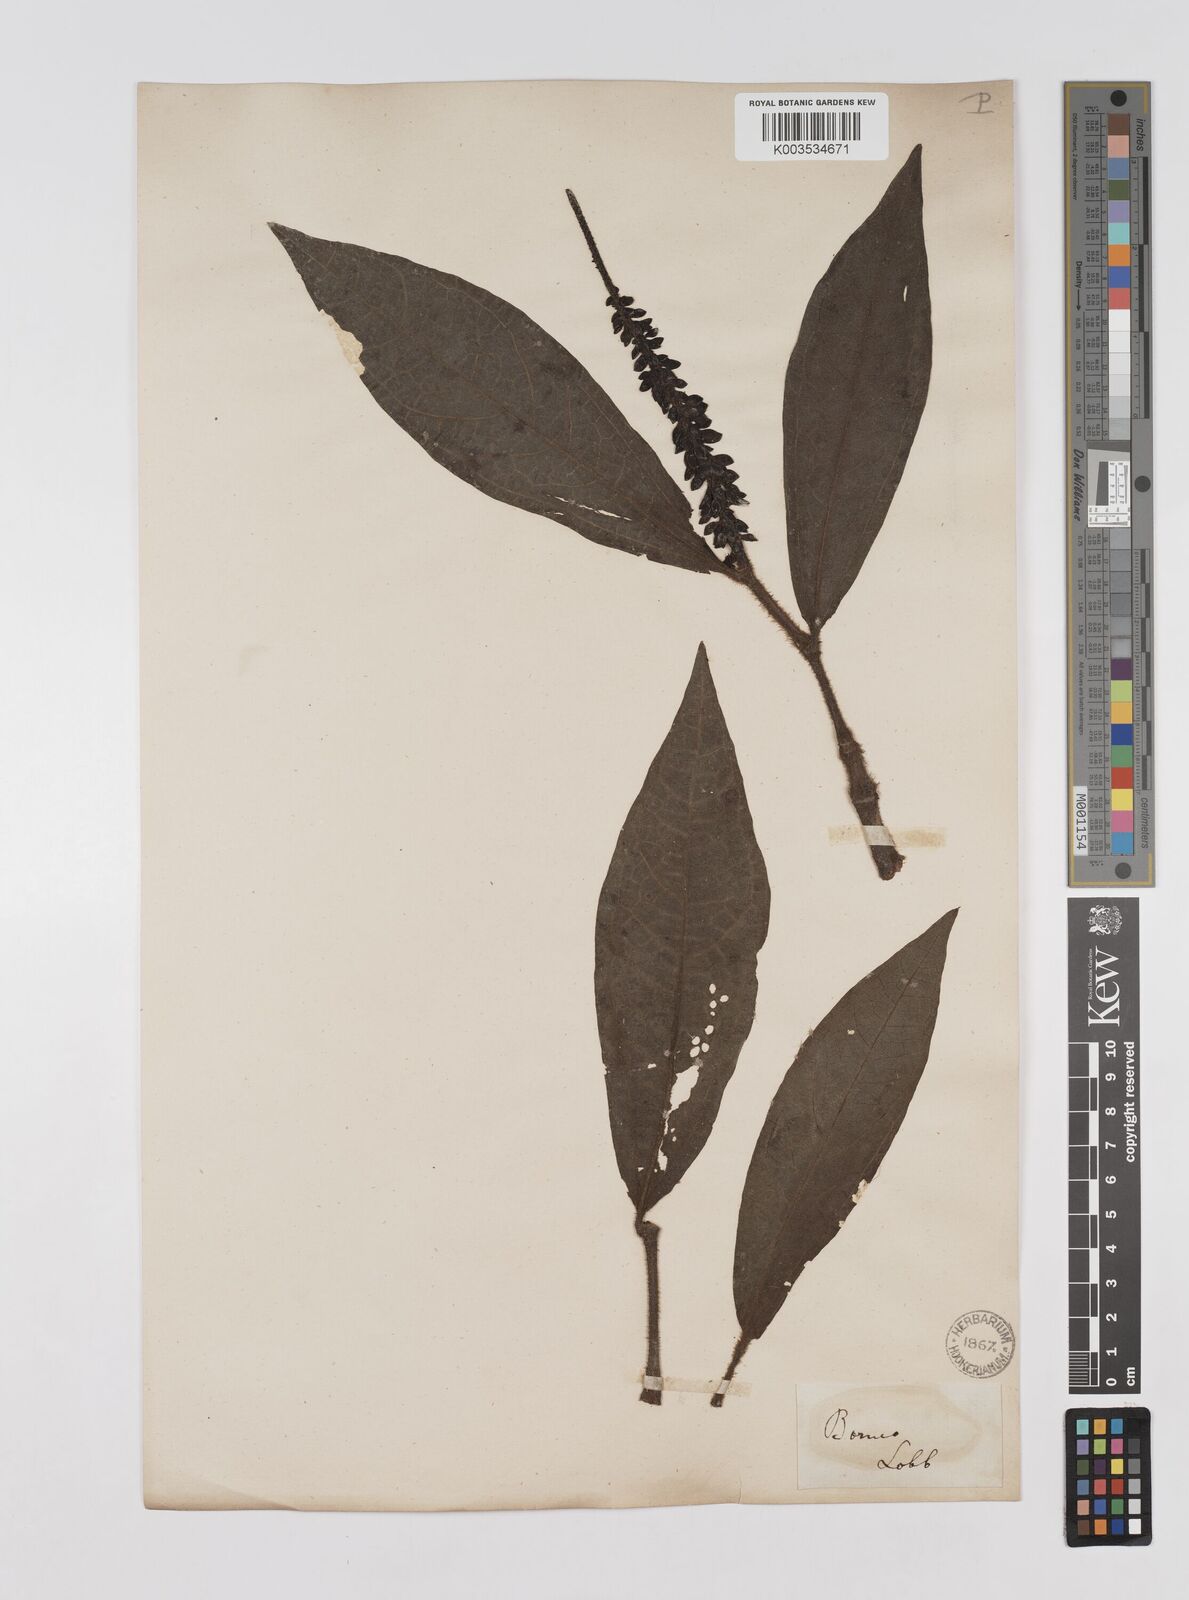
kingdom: Plantae
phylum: Tracheophyta
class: Magnoliopsida
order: Piperales
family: Piperaceae
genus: Piper
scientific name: Piper muricatum
